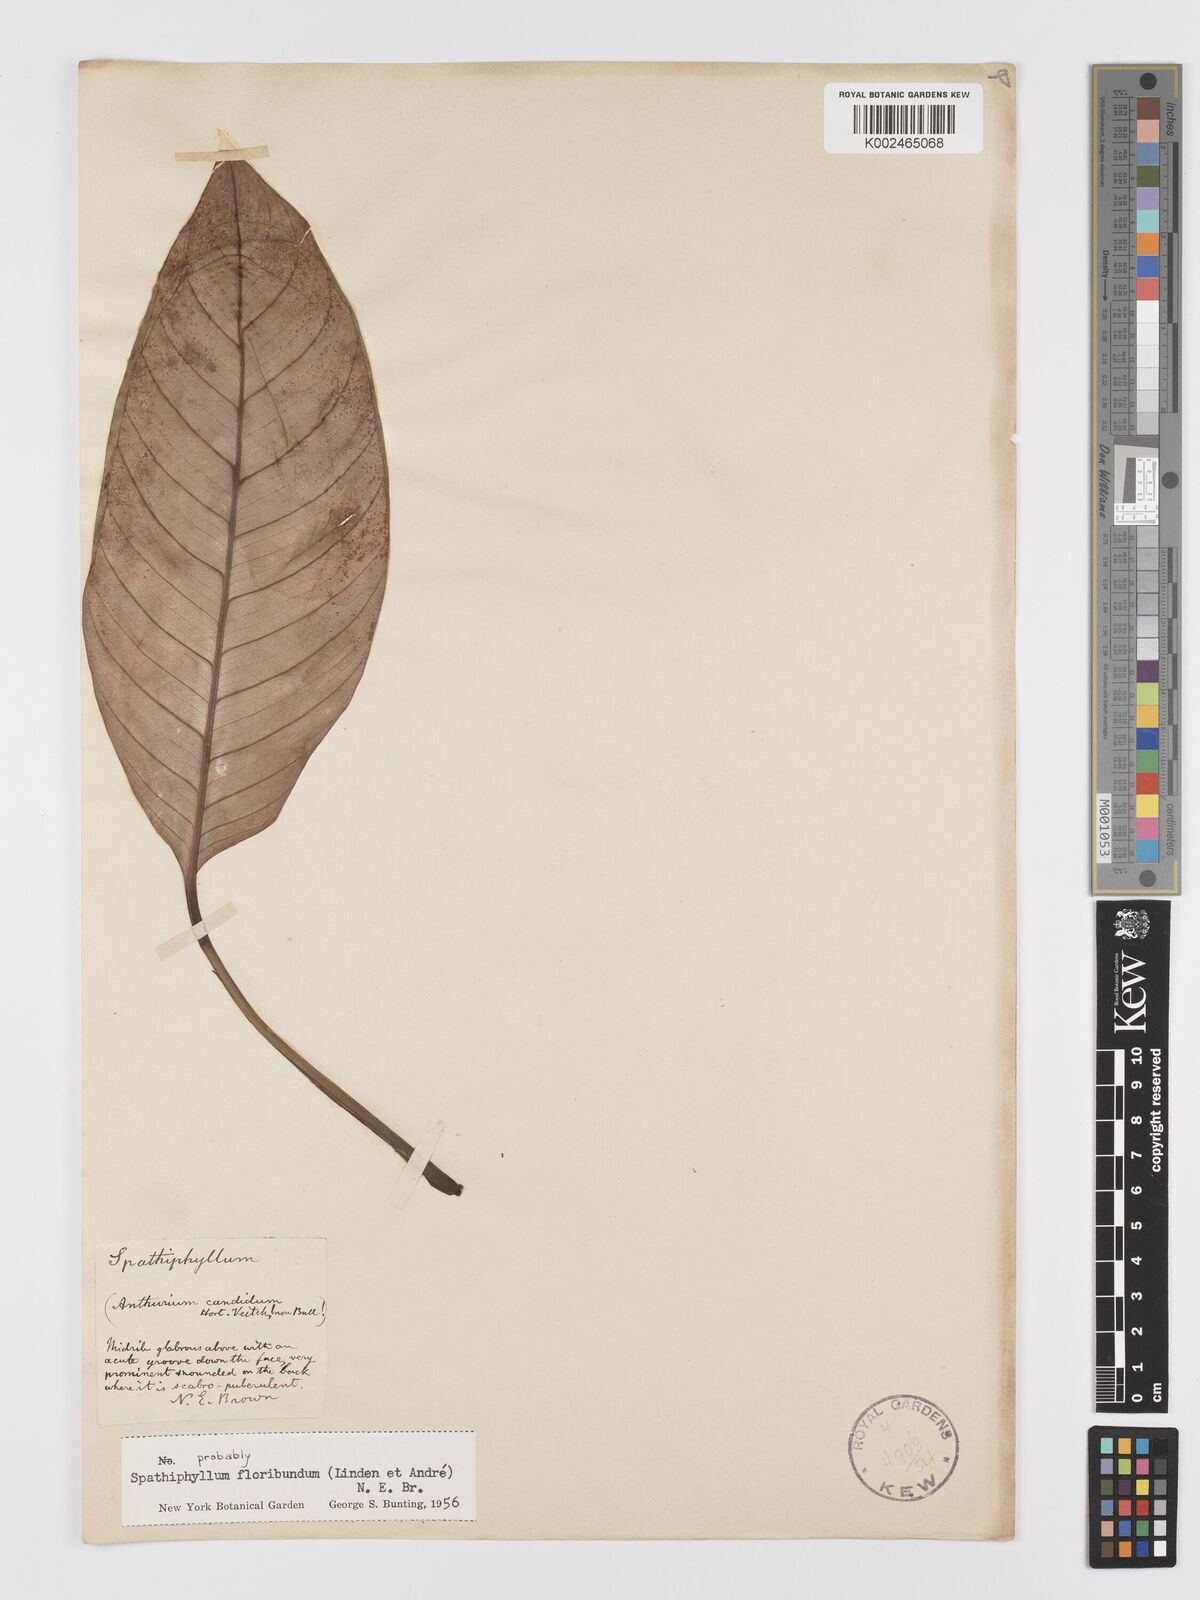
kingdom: Plantae
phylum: Tracheophyta
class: Liliopsida
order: Alismatales
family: Araceae
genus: Spathiphyllum
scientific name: Spathiphyllum floribundum
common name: Peace-lily
